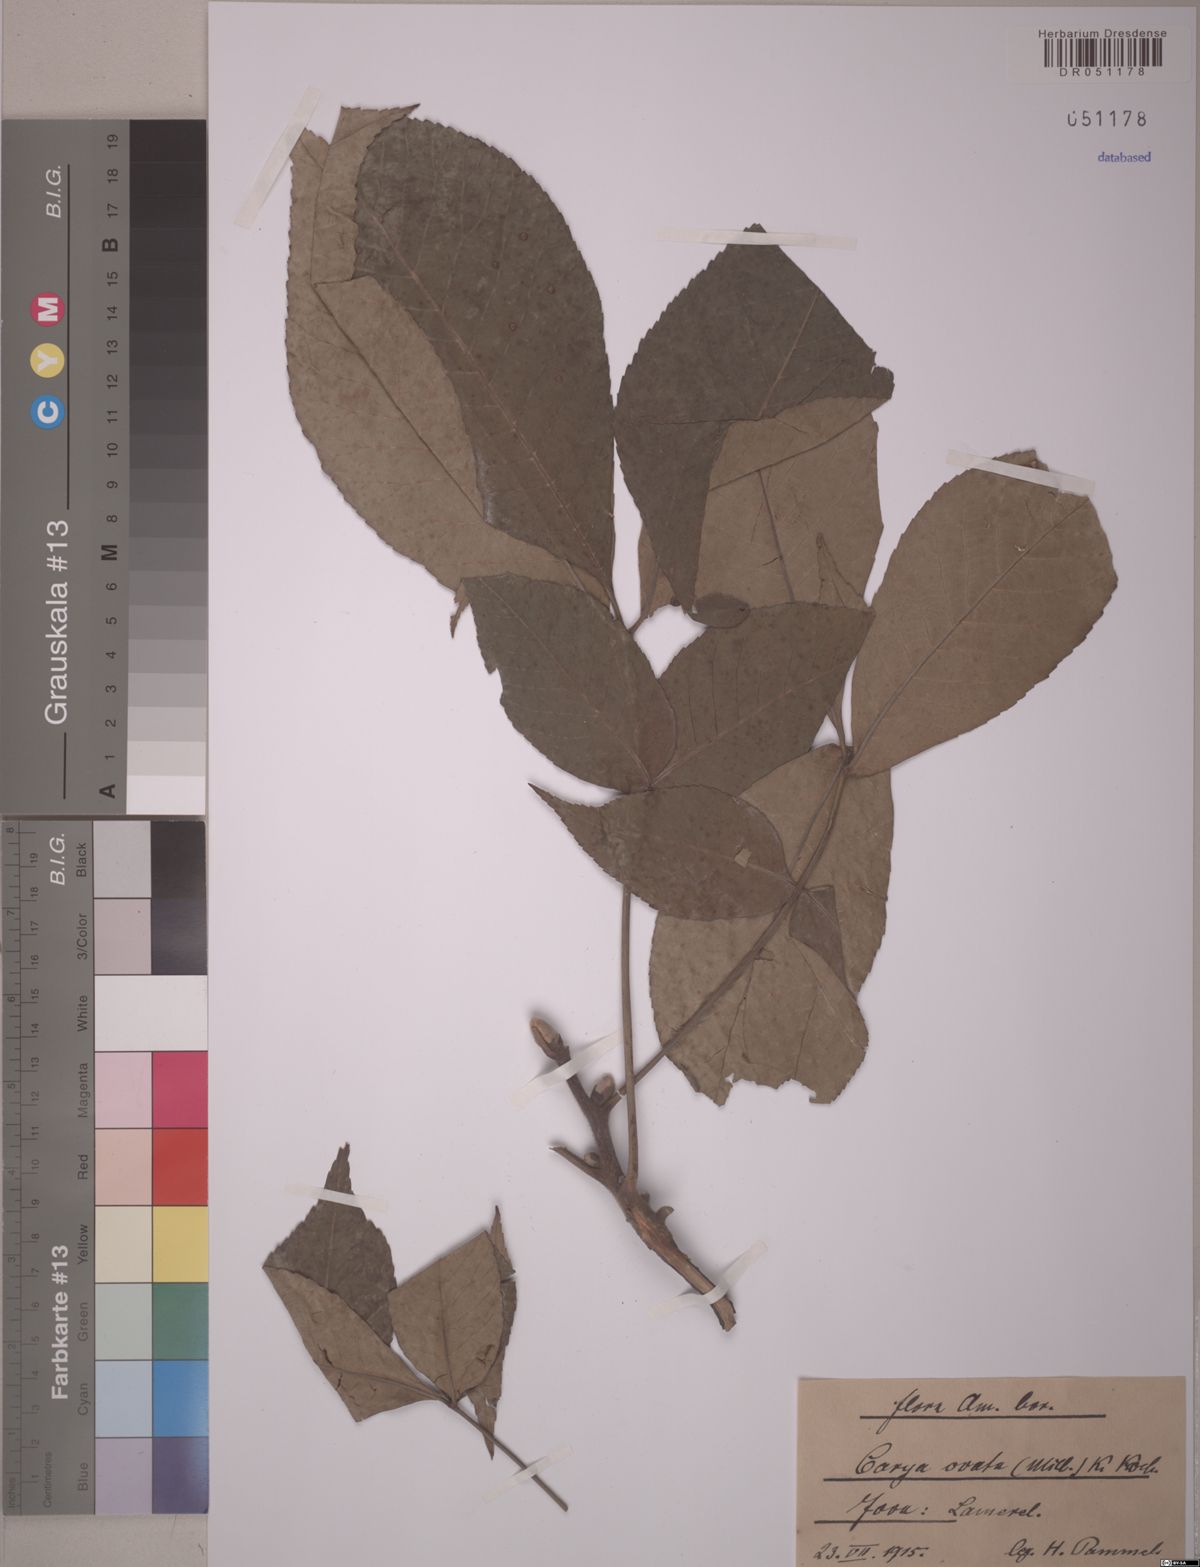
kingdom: Plantae
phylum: Tracheophyta
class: Magnoliopsida
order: Fagales
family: Juglandaceae
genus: Carya
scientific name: Carya ovata
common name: Shagbark hickory
